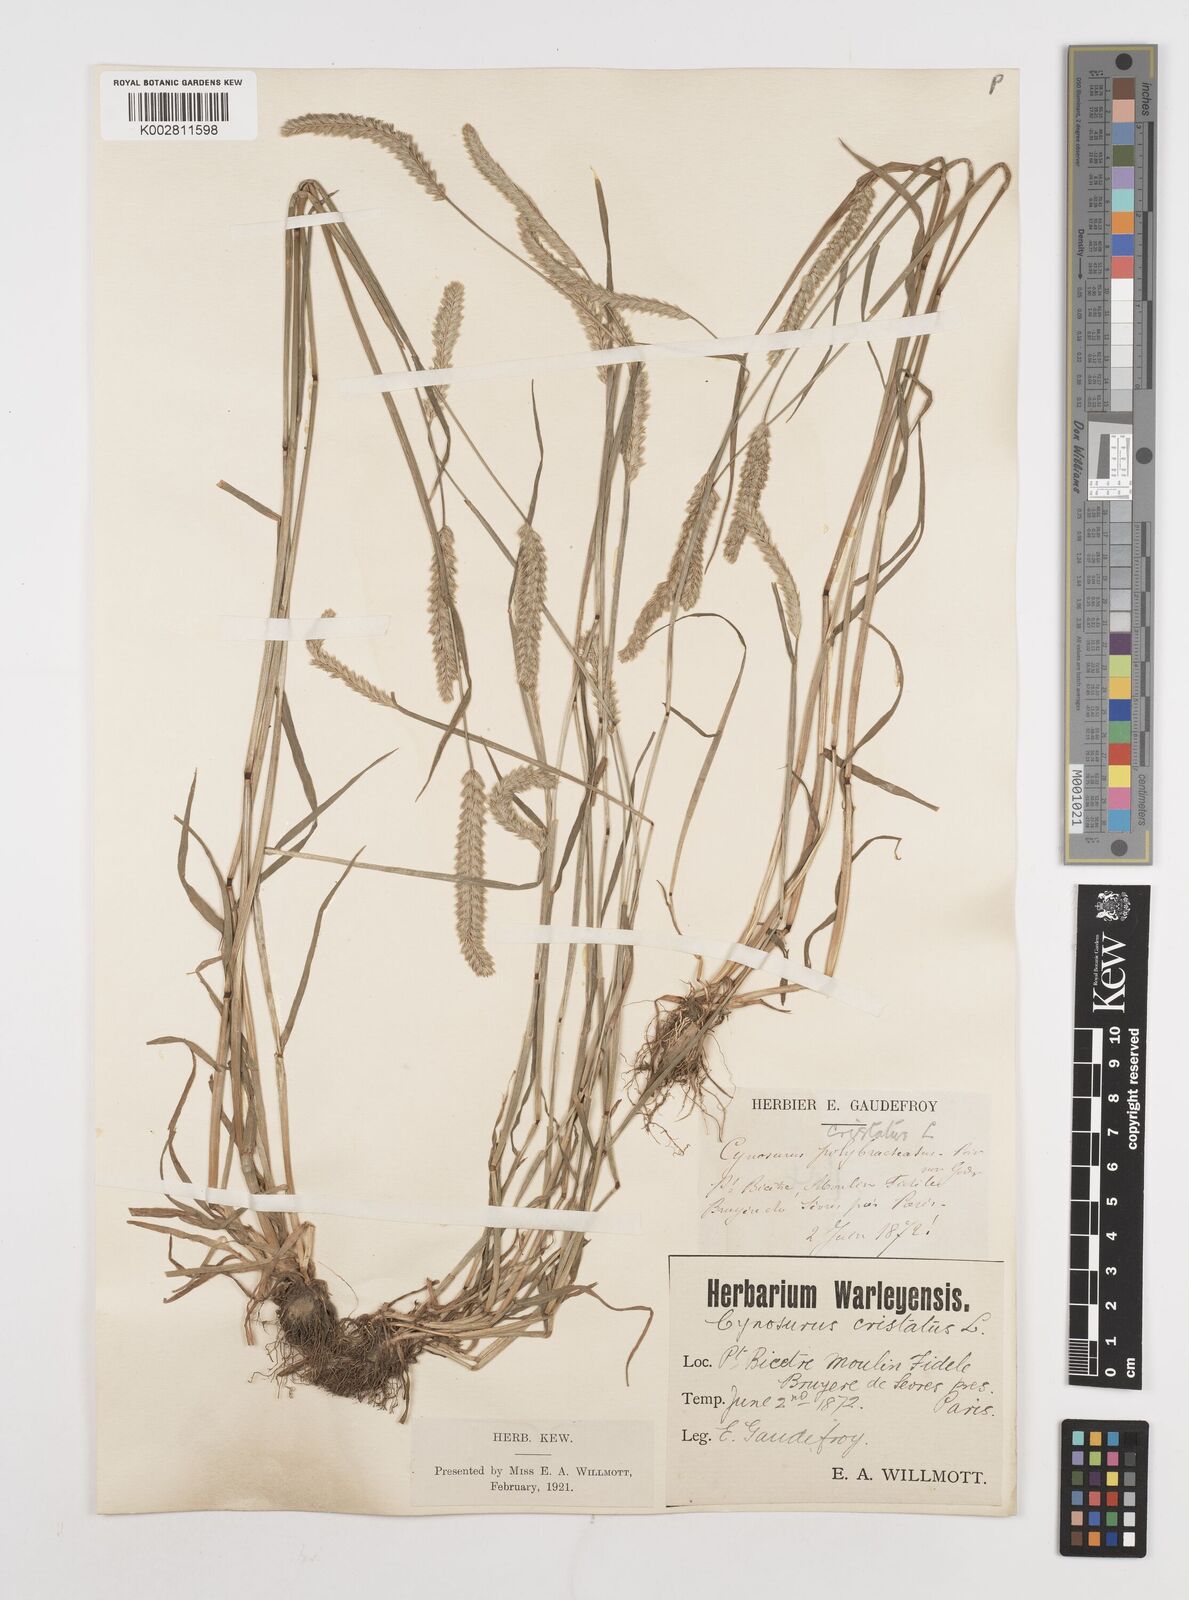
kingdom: Plantae
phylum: Tracheophyta
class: Liliopsida
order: Poales
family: Poaceae
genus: Cynosurus
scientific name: Cynosurus cristatus
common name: Crested dog's-tail
